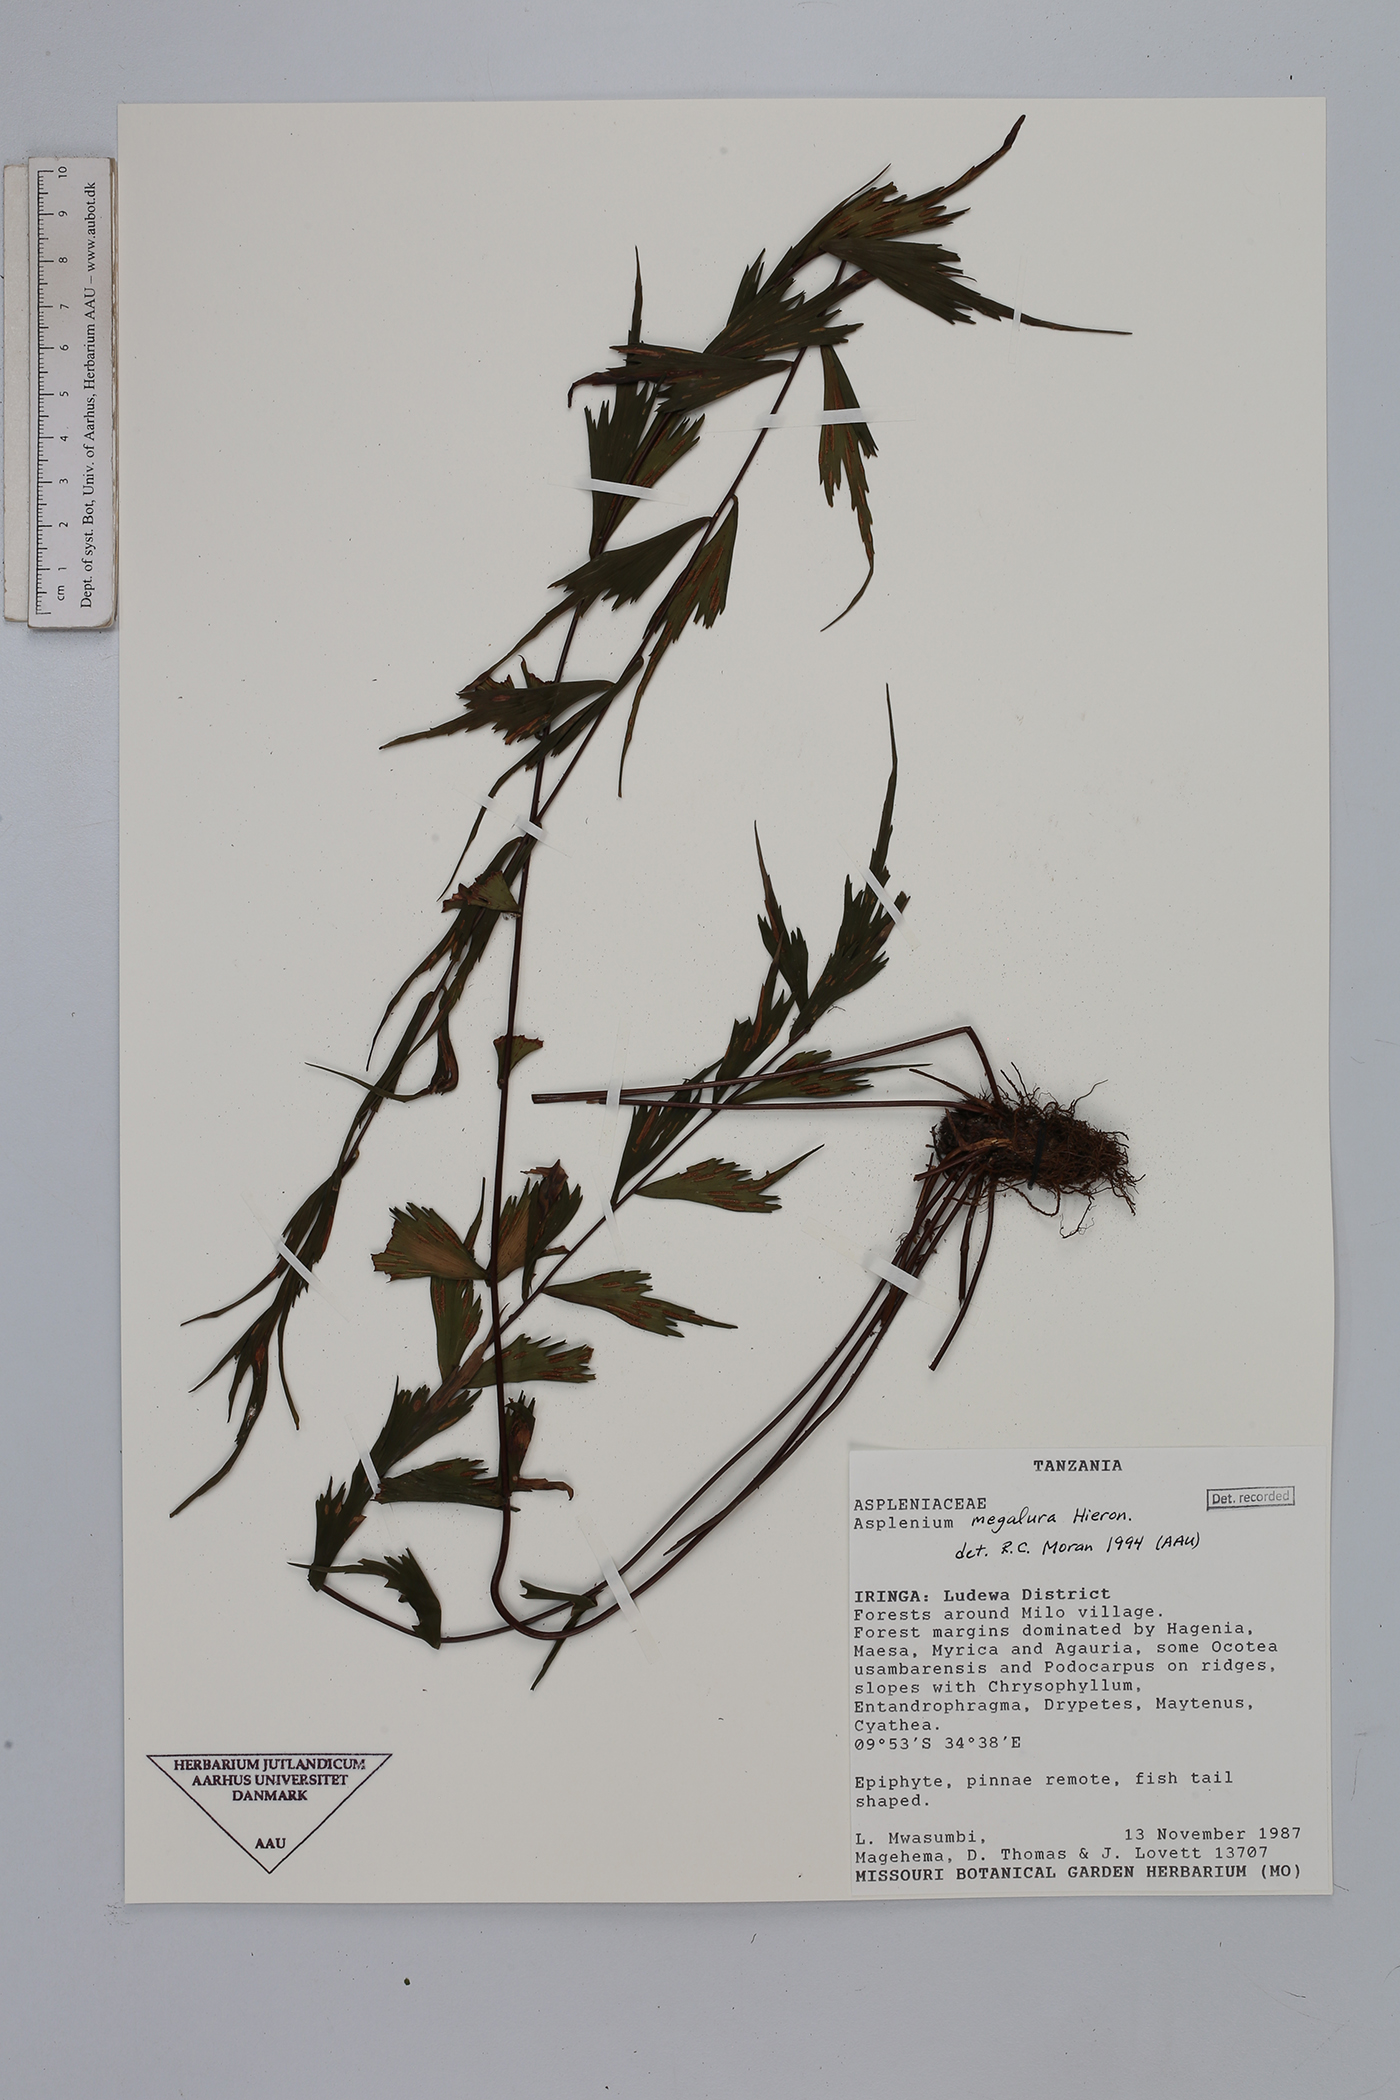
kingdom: Plantae
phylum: Tracheophyta
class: Polypodiopsida
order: Polypodiales
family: Aspleniaceae
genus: Asplenium
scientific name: Asplenium megalura
